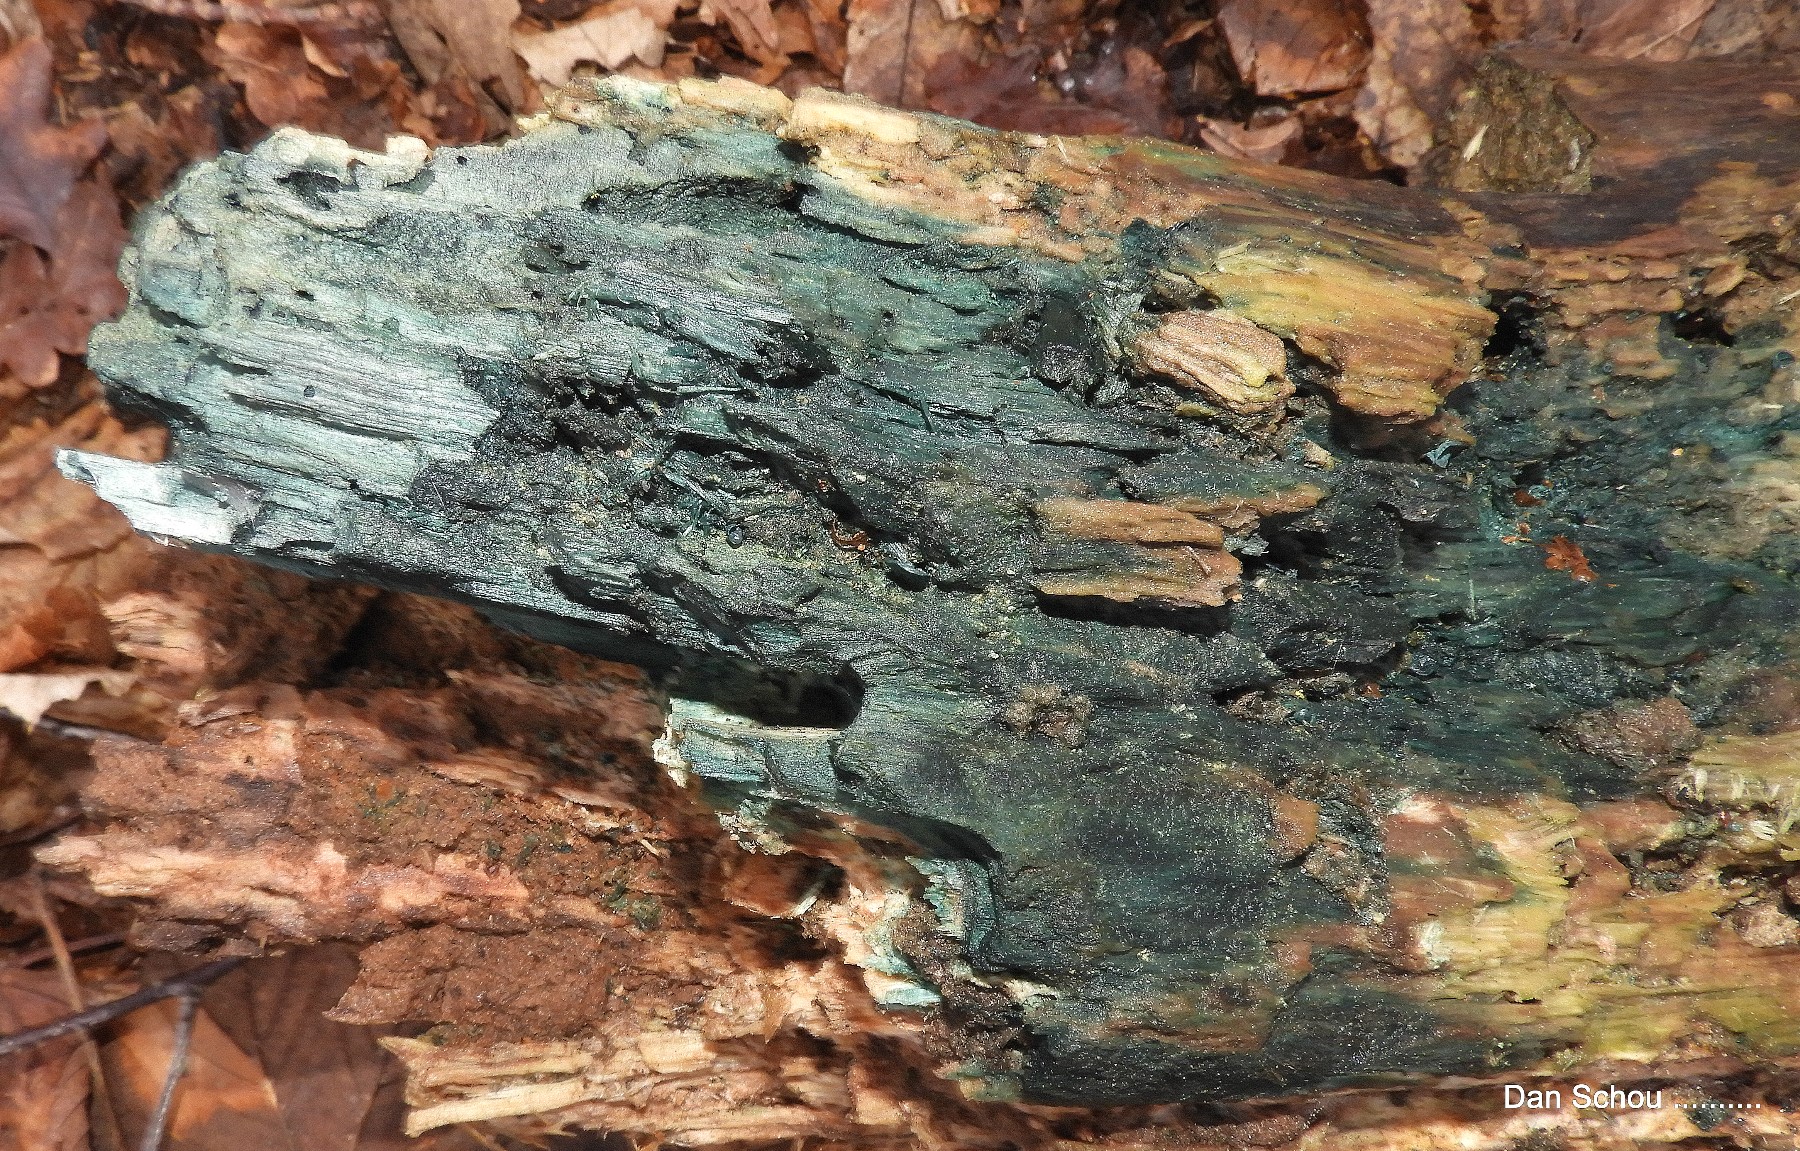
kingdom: Fungi
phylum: Ascomycota
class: Leotiomycetes
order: Helotiales
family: Chlorociboriaceae
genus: Chlorociboria
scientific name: Chlorociboria
